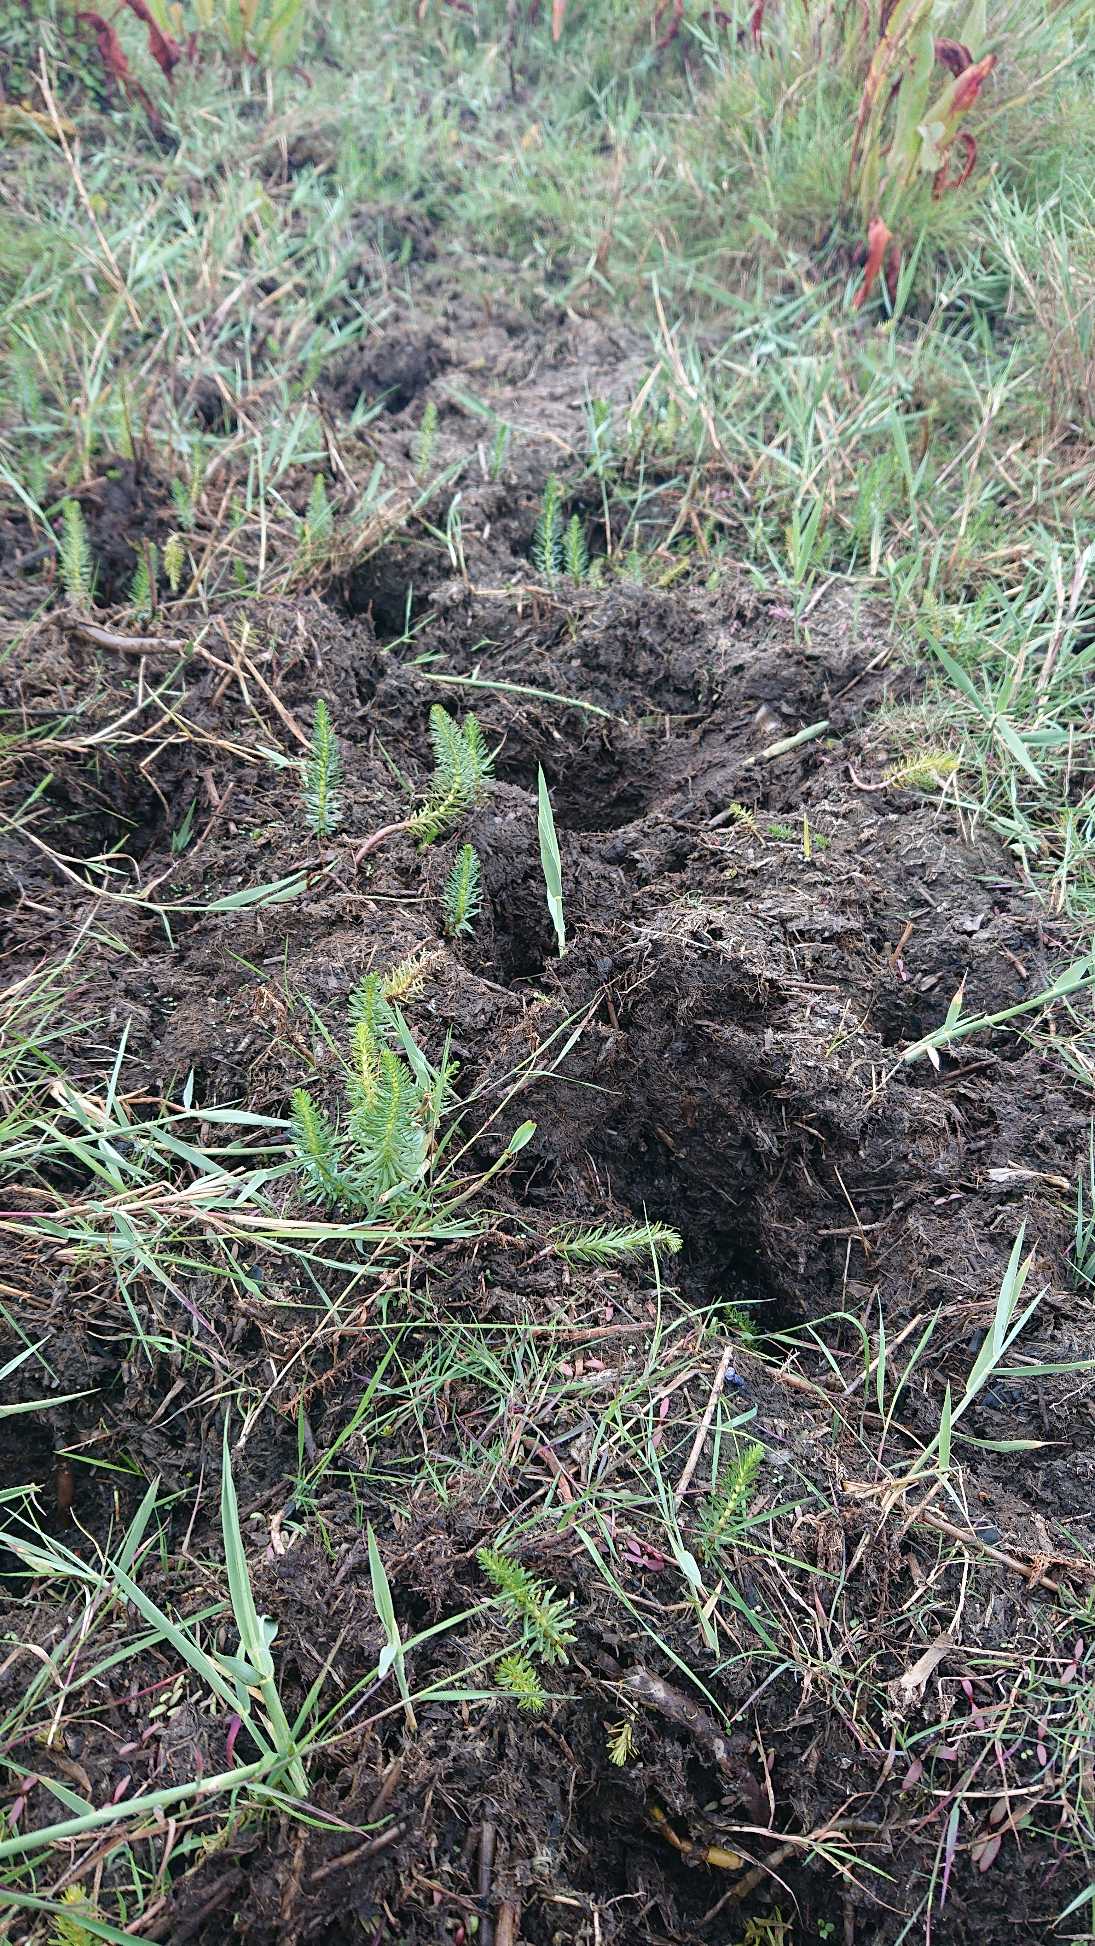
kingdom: Plantae
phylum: Tracheophyta
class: Magnoliopsida
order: Lamiales
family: Plantaginaceae
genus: Hippuris
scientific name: Hippuris vulgaris
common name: Vandspir
